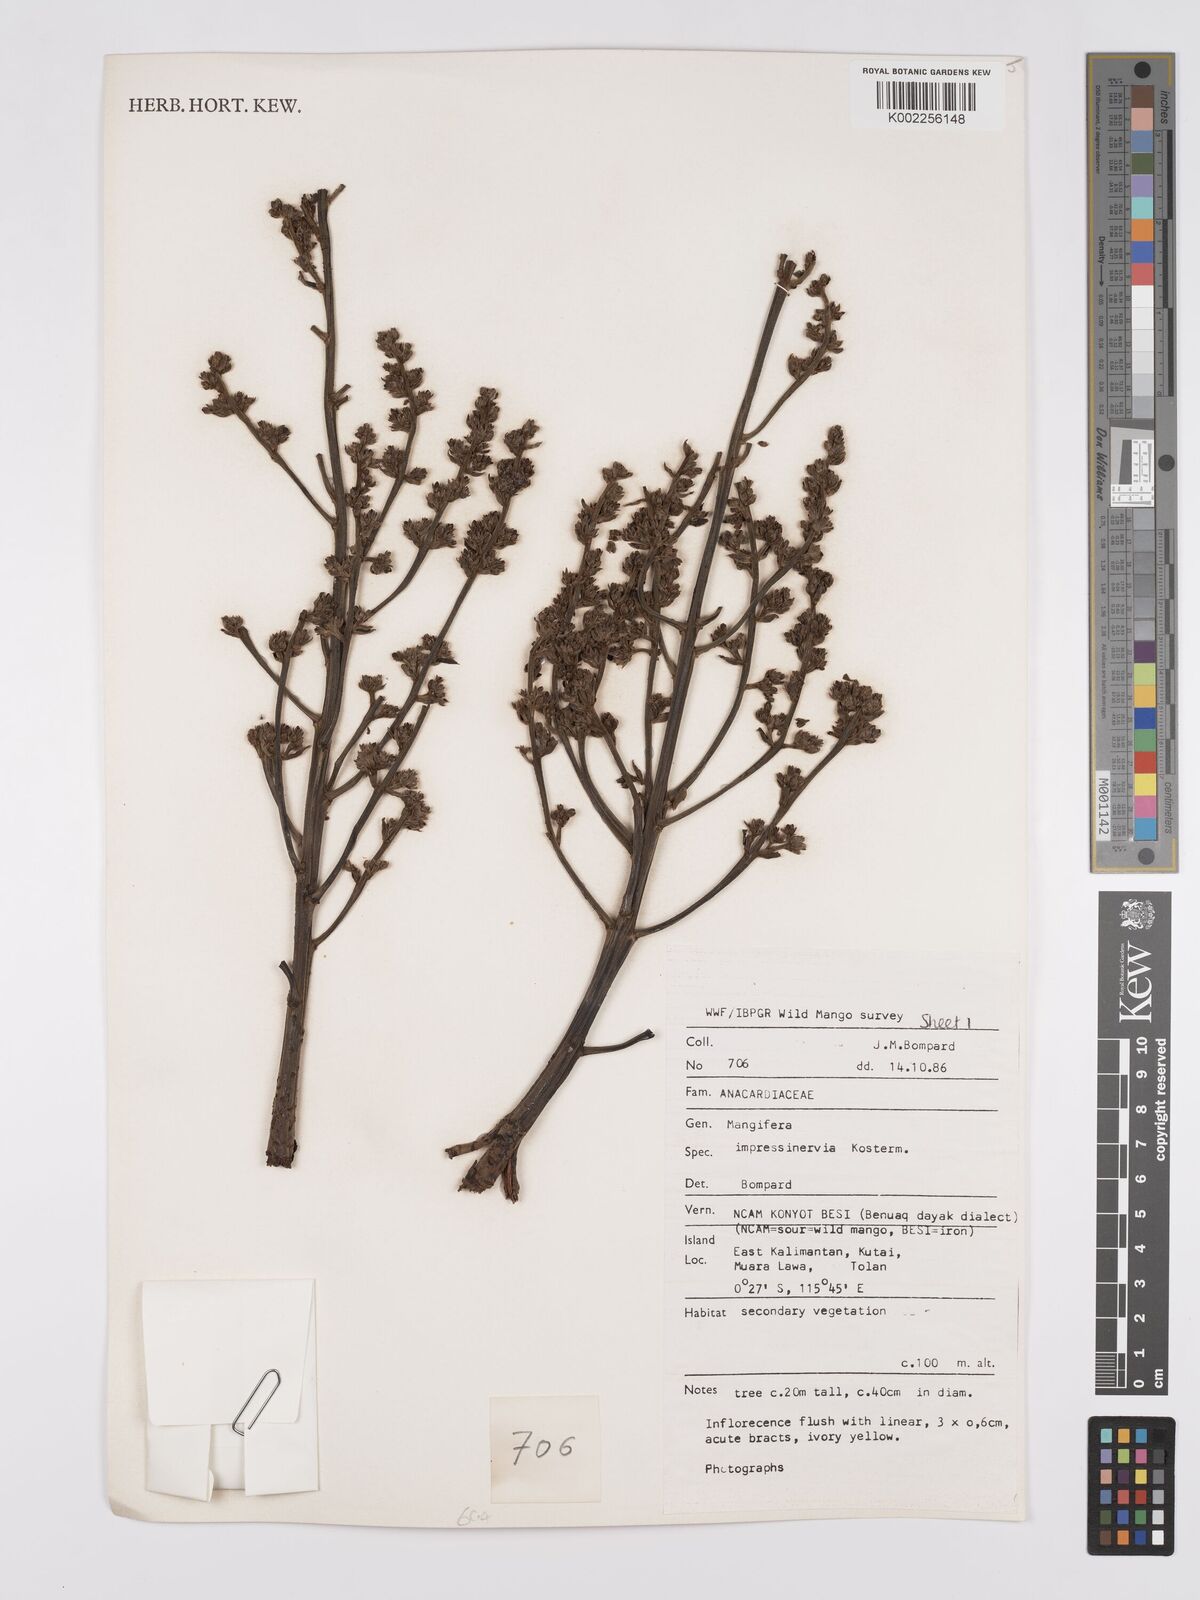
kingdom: Plantae
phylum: Tracheophyta
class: Magnoliopsida
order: Sapindales
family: Anacardiaceae
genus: Mangifera
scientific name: Mangifera
